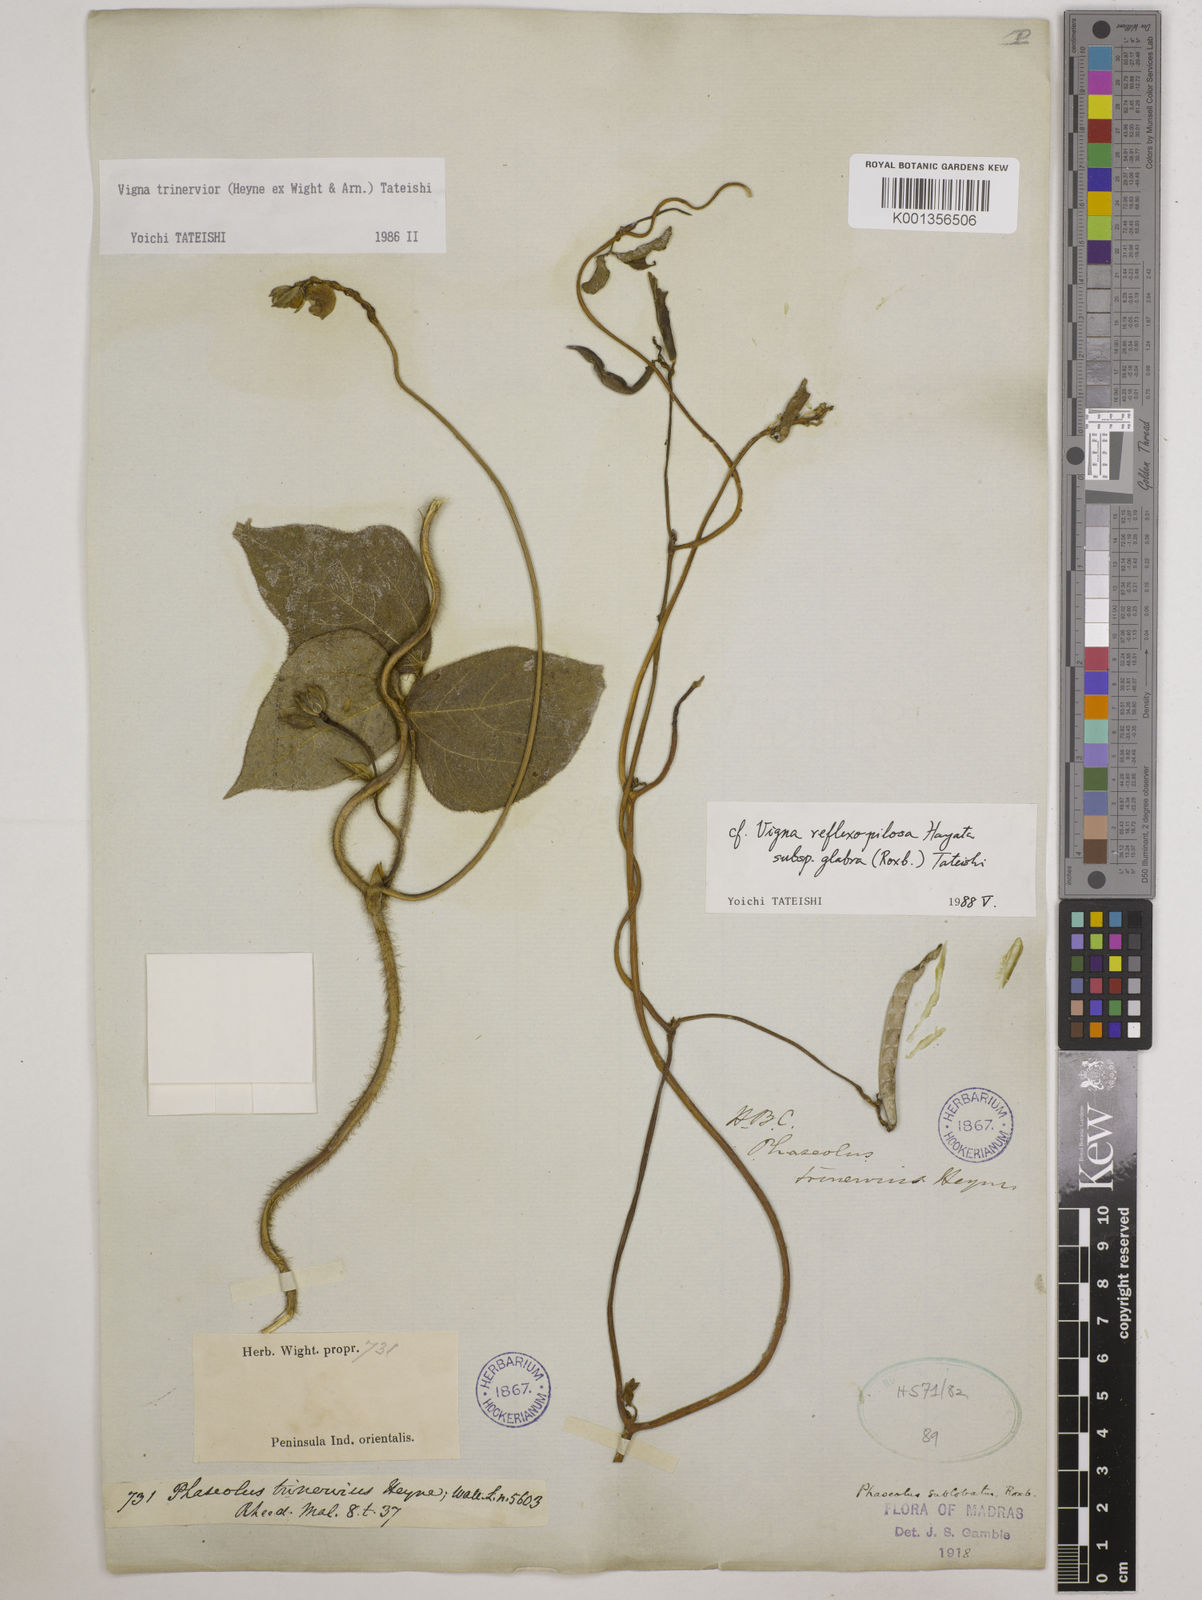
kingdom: Plantae
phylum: Tracheophyta
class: Magnoliopsida
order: Fabales
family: Fabaceae
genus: Vigna
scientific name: Vigna radiata
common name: Mung-bean
